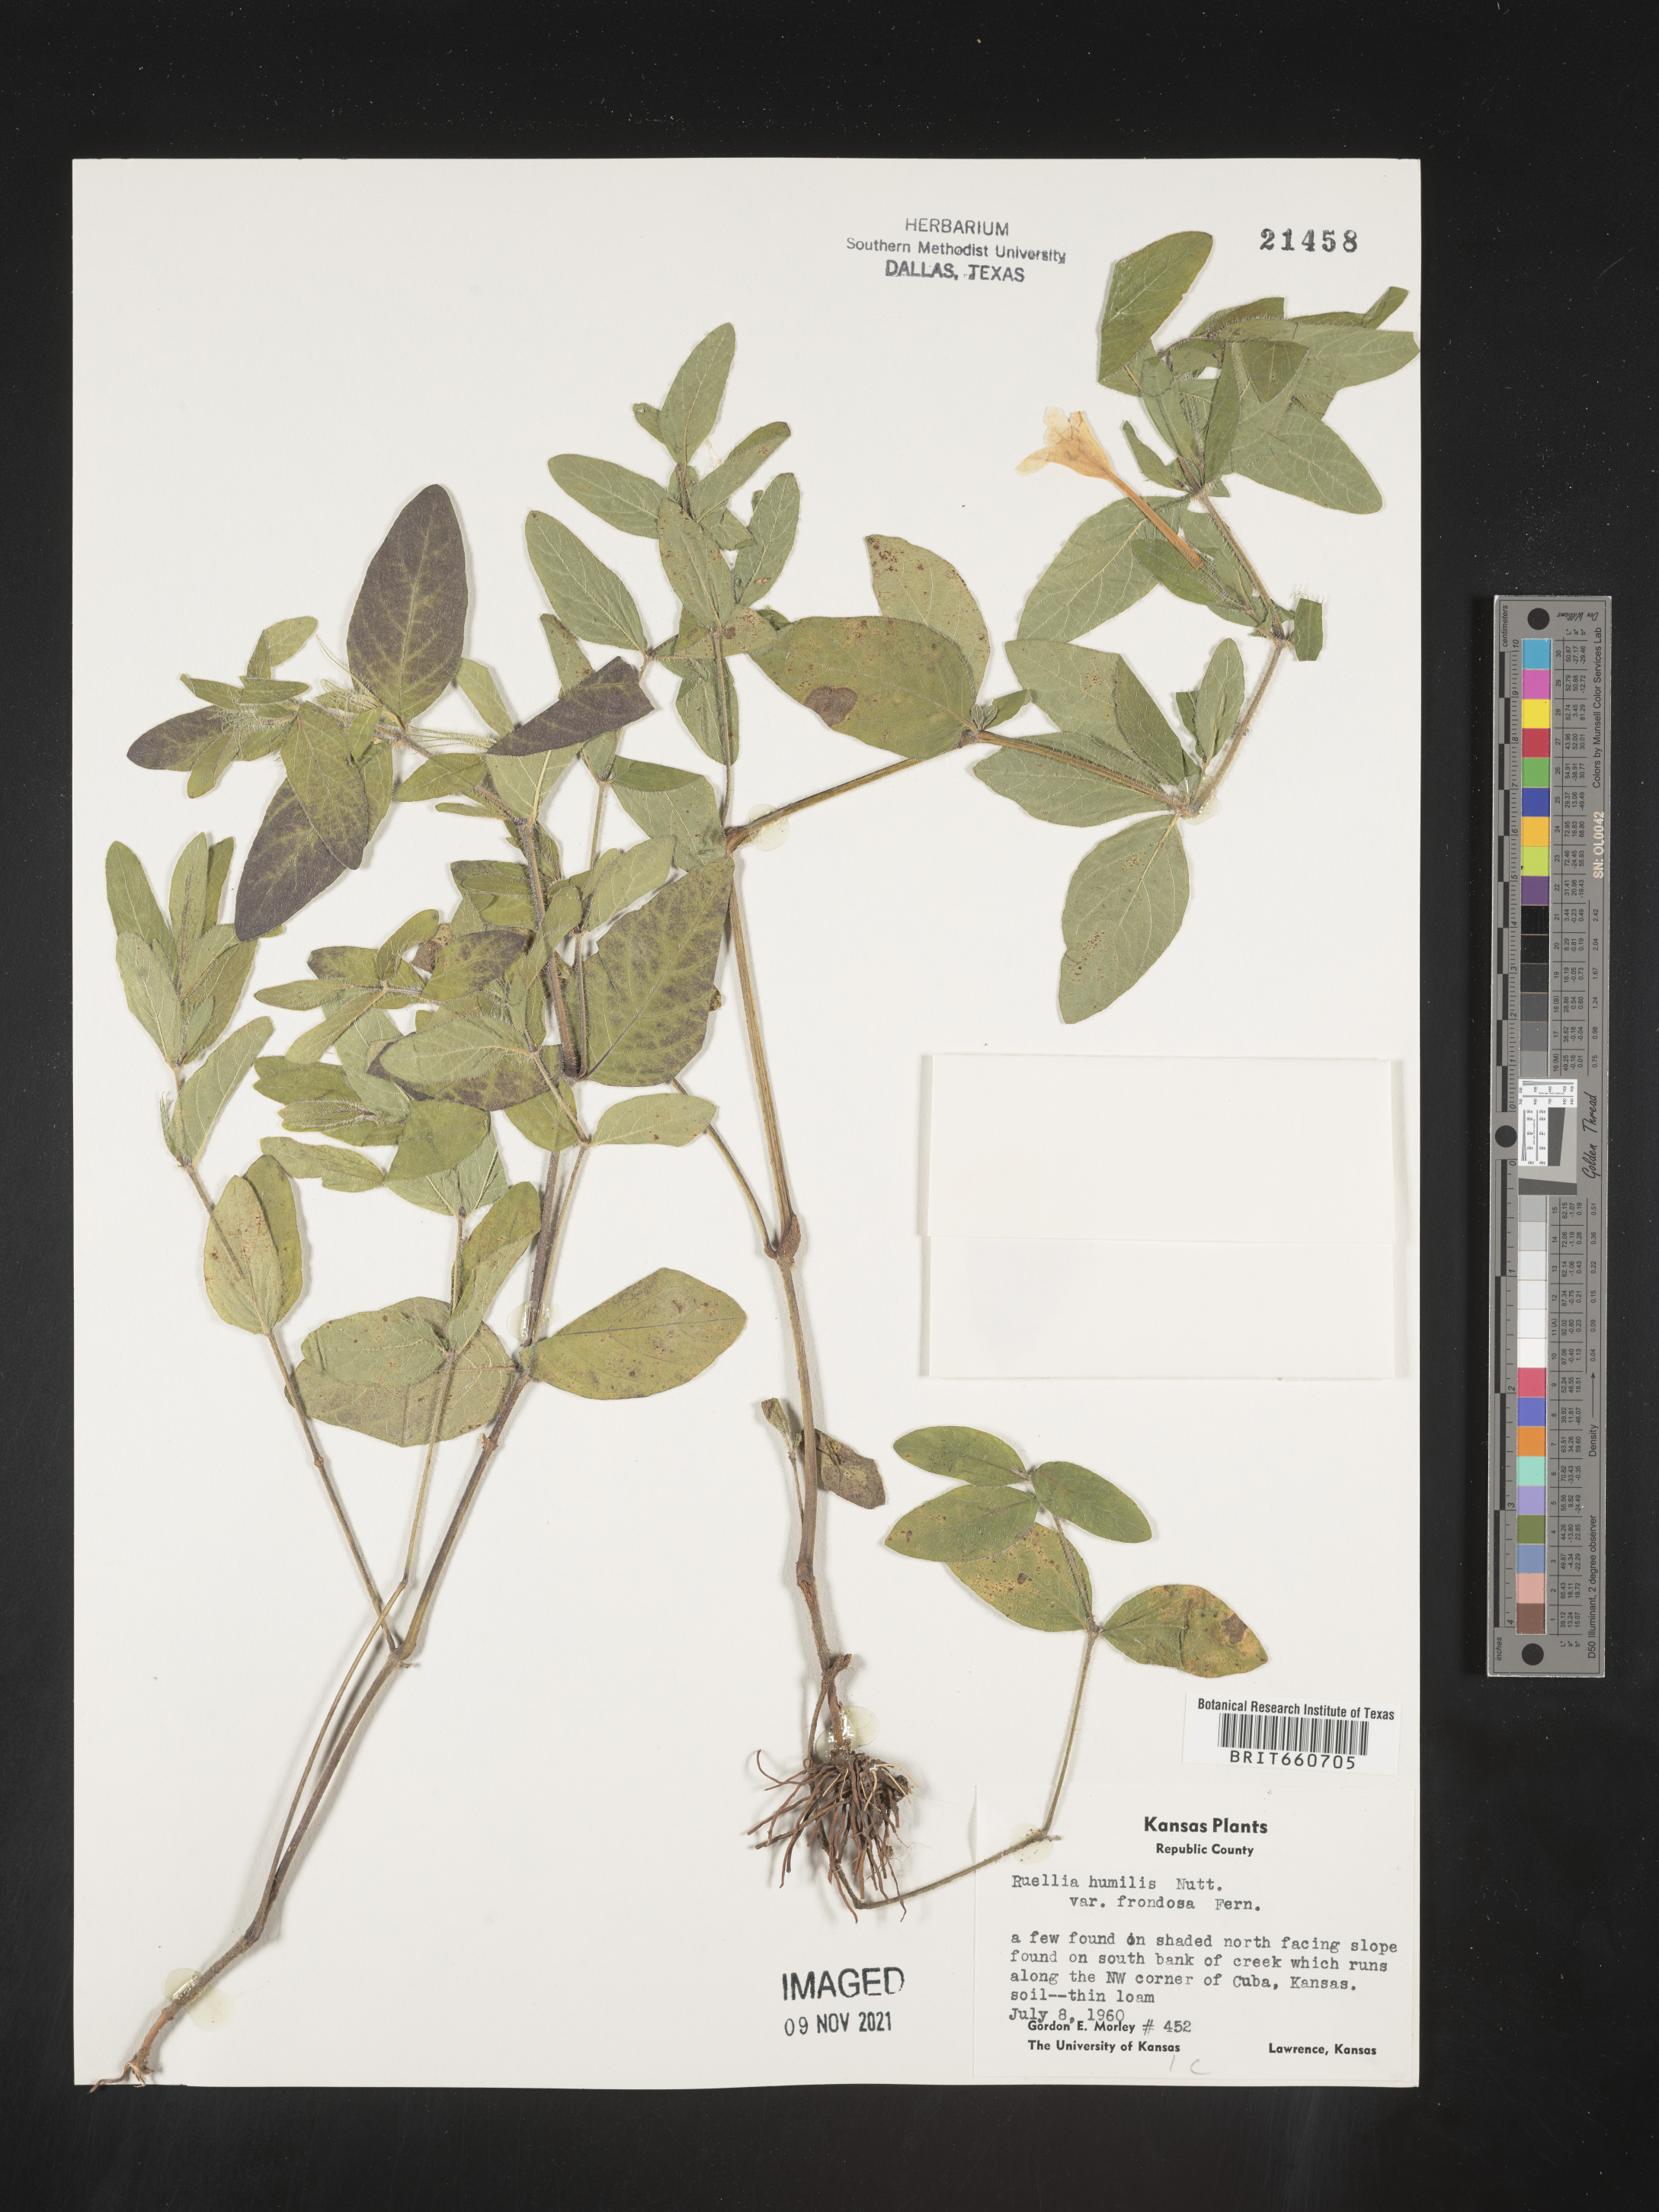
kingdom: Plantae
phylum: Tracheophyta
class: Magnoliopsida
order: Lamiales
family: Acanthaceae
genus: Ruellia
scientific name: Ruellia humilis
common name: Fringe-leaf ruellia
